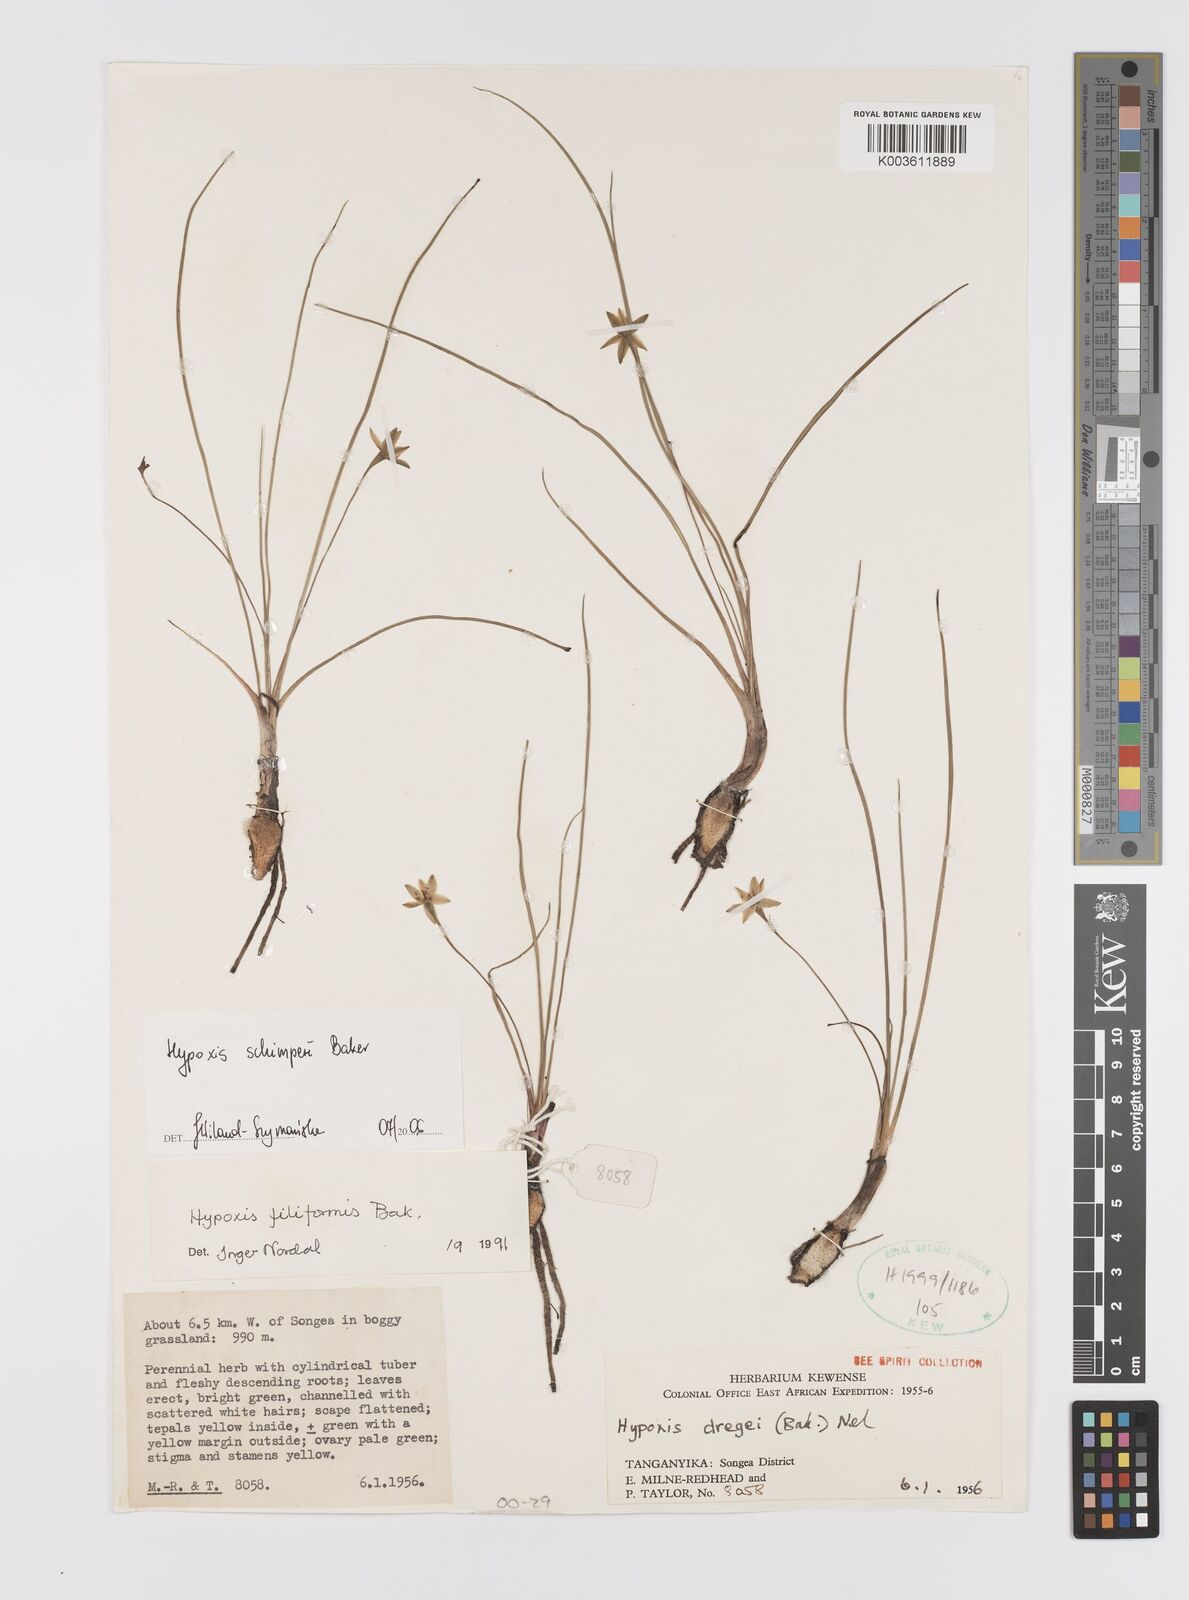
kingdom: Plantae
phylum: Tracheophyta
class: Liliopsida
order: Asparagales
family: Hypoxidaceae
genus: Hypoxis
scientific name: Hypoxis schimperi
